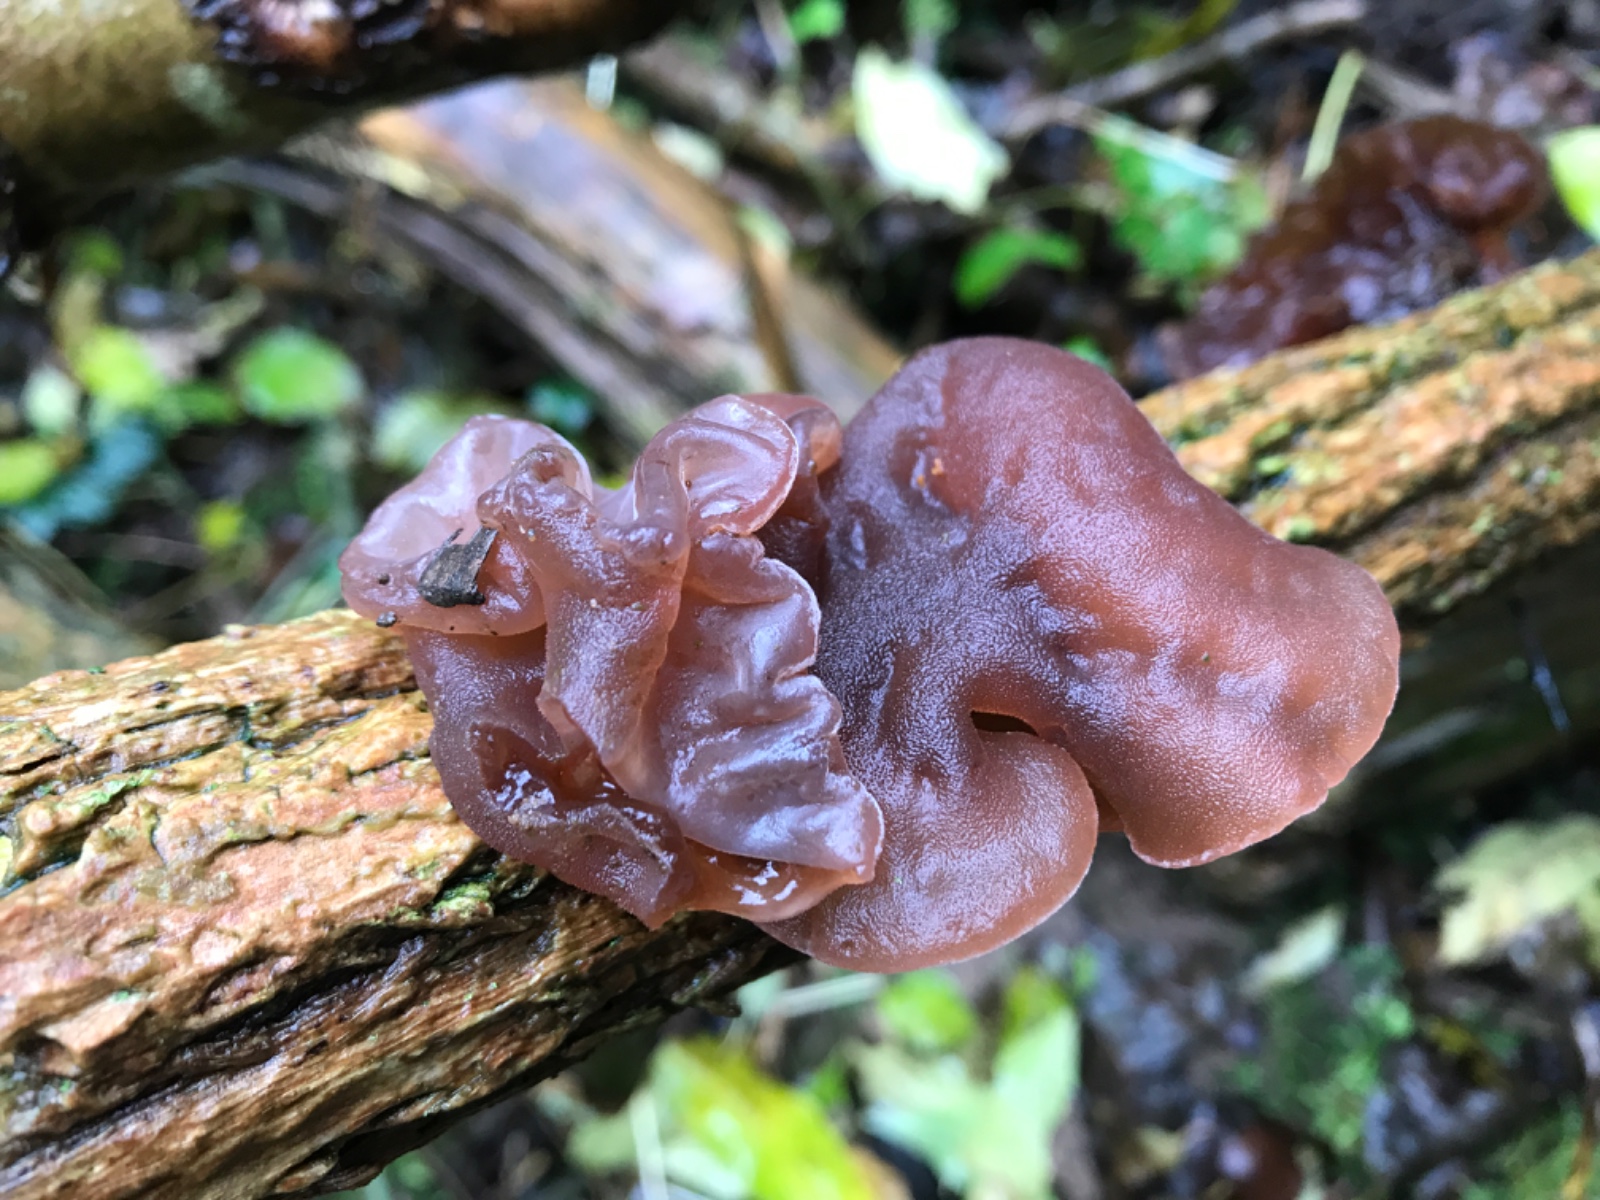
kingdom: Fungi
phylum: Basidiomycota
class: Agaricomycetes
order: Auriculariales
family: Auriculariaceae
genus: Auricularia
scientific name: Auricularia auricula-judae
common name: almindelig judasøre
